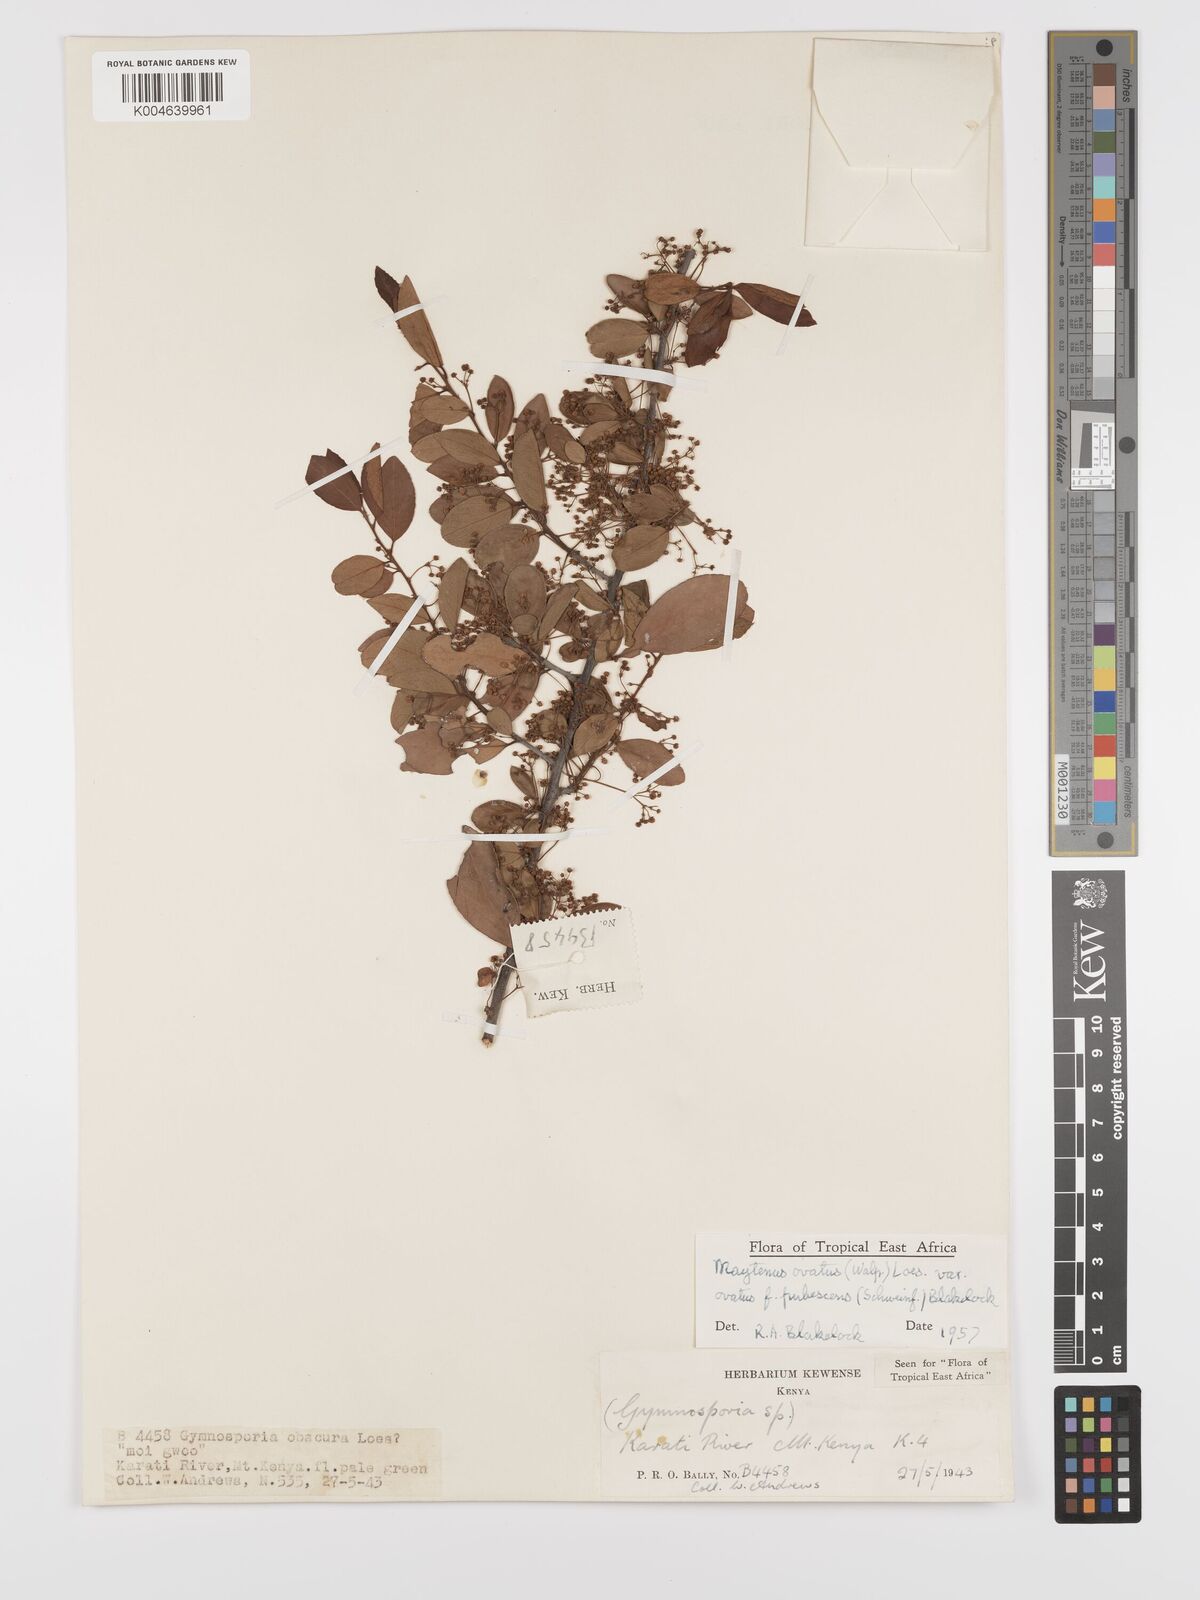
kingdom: Plantae
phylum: Tracheophyta
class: Magnoliopsida
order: Celastrales
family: Celastraceae
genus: Gymnosporia
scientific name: Gymnosporia
